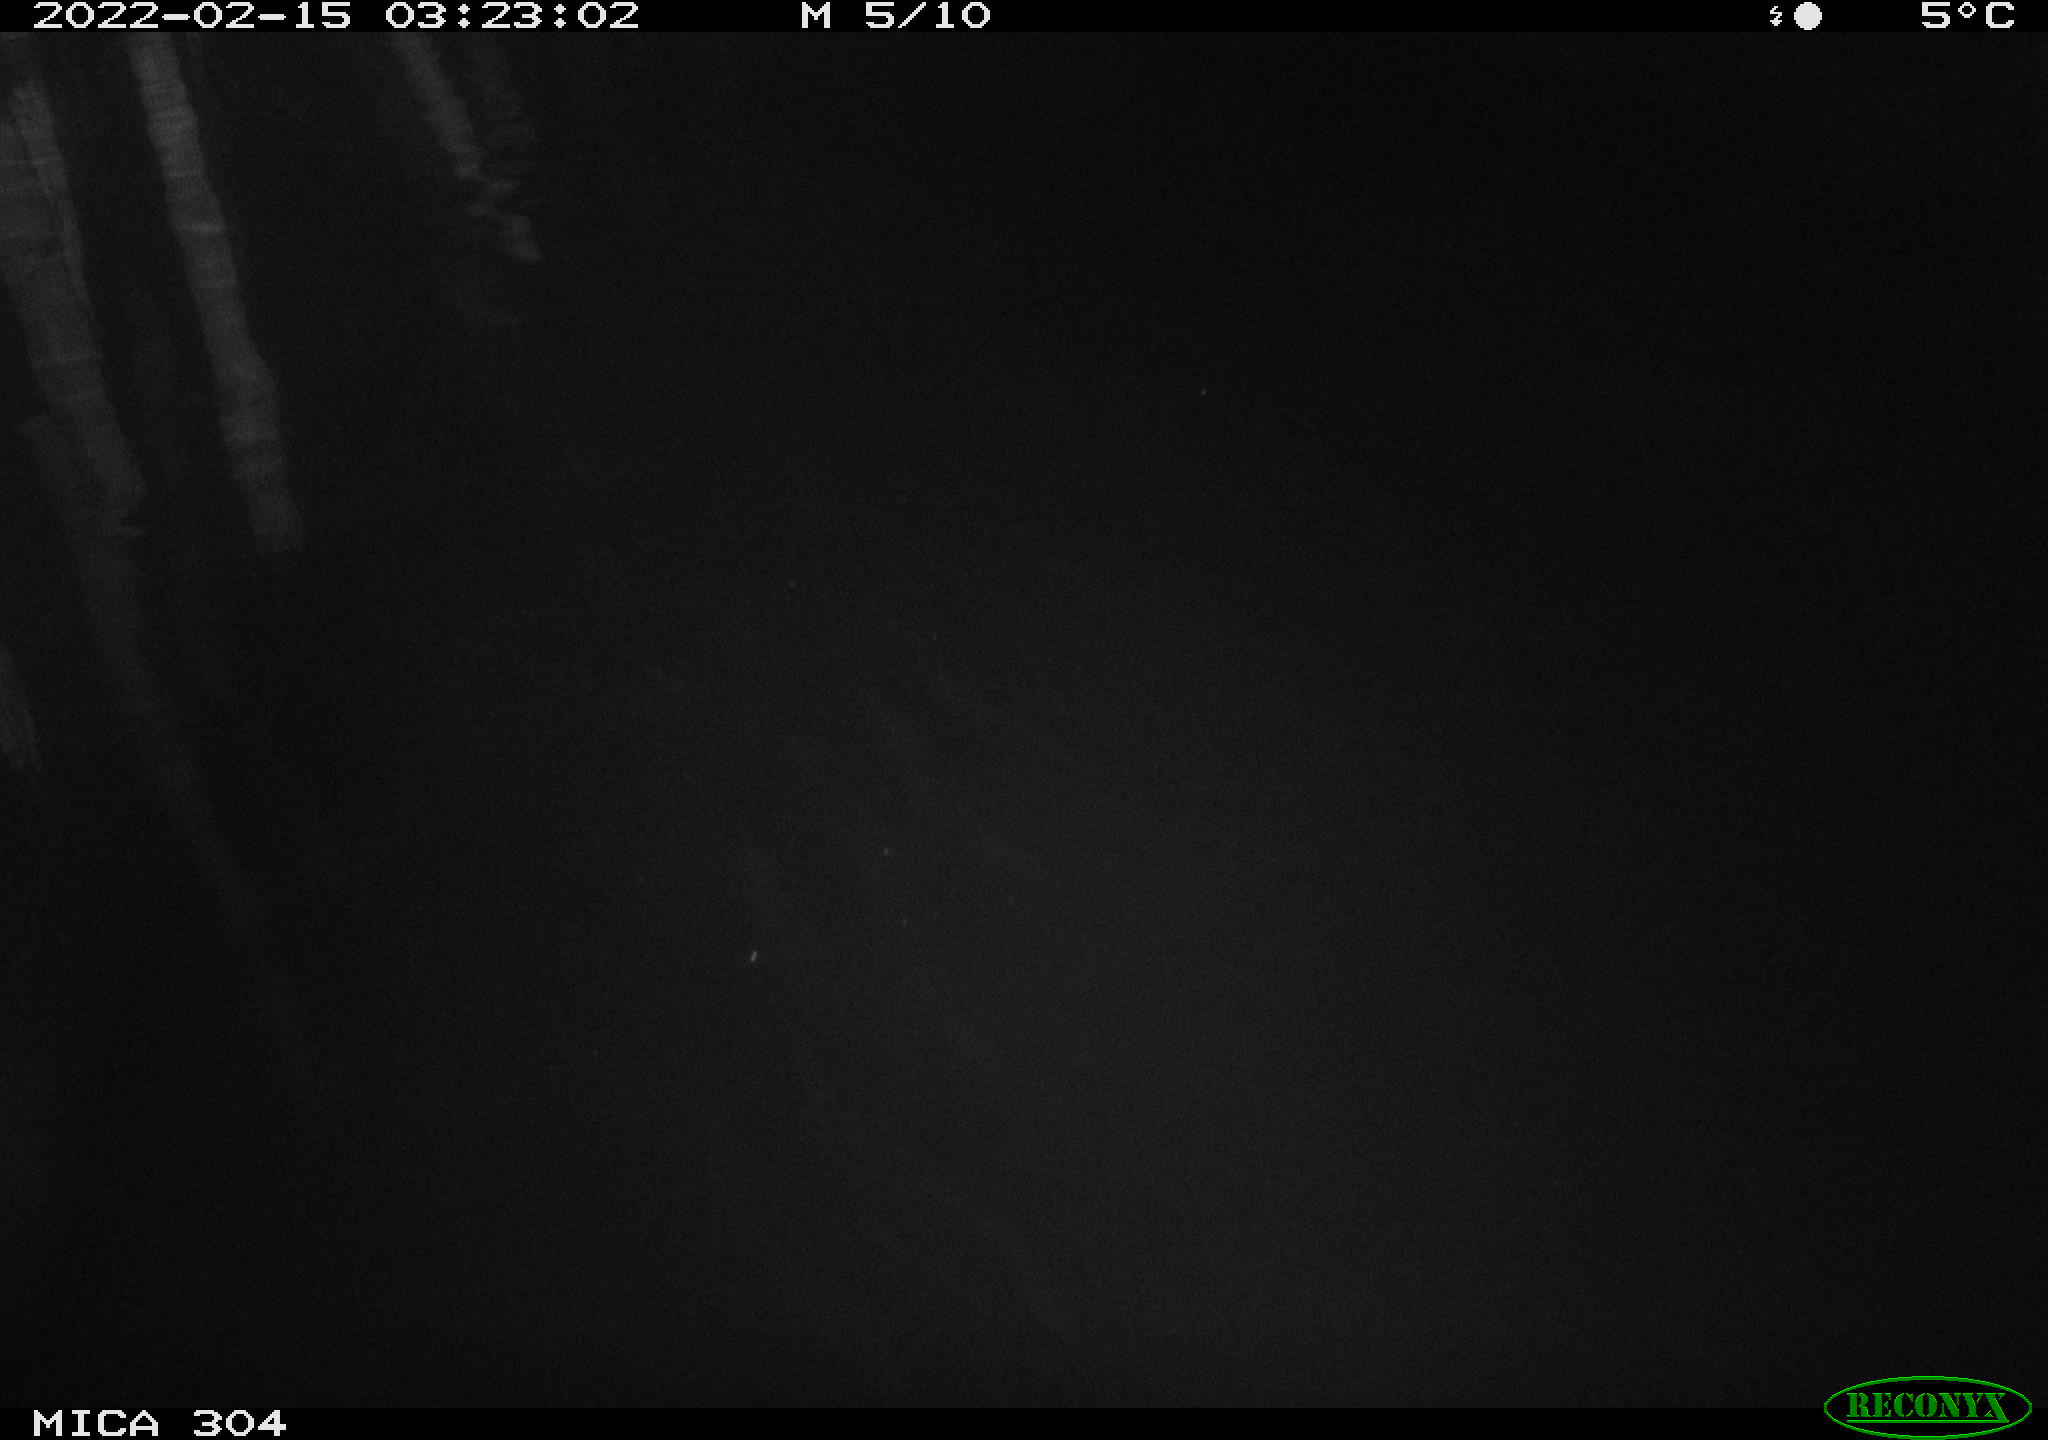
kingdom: Animalia
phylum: Chordata
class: Aves
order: Anseriformes
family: Anatidae
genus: Anas
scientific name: Anas platyrhynchos
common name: Mallard
